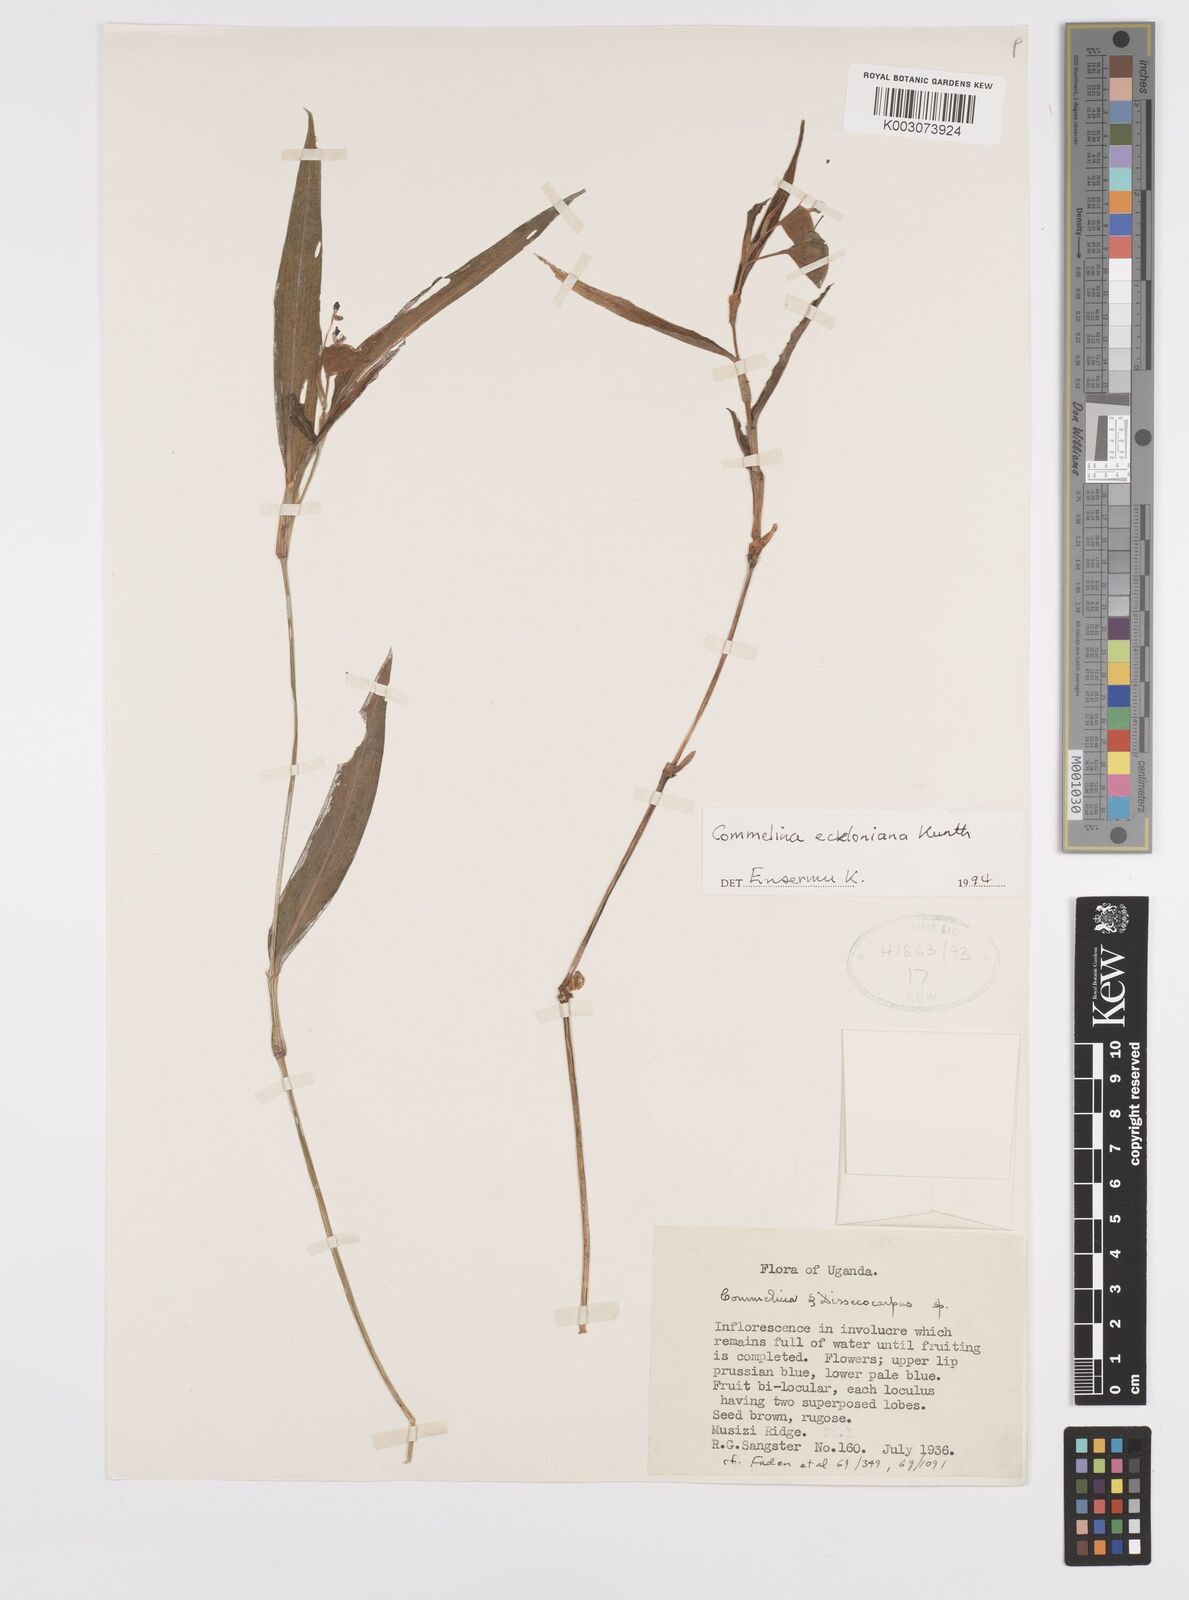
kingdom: Plantae
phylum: Tracheophyta
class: Liliopsida
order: Commelinales
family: Commelinaceae
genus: Commelina
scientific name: Commelina eckloniana
